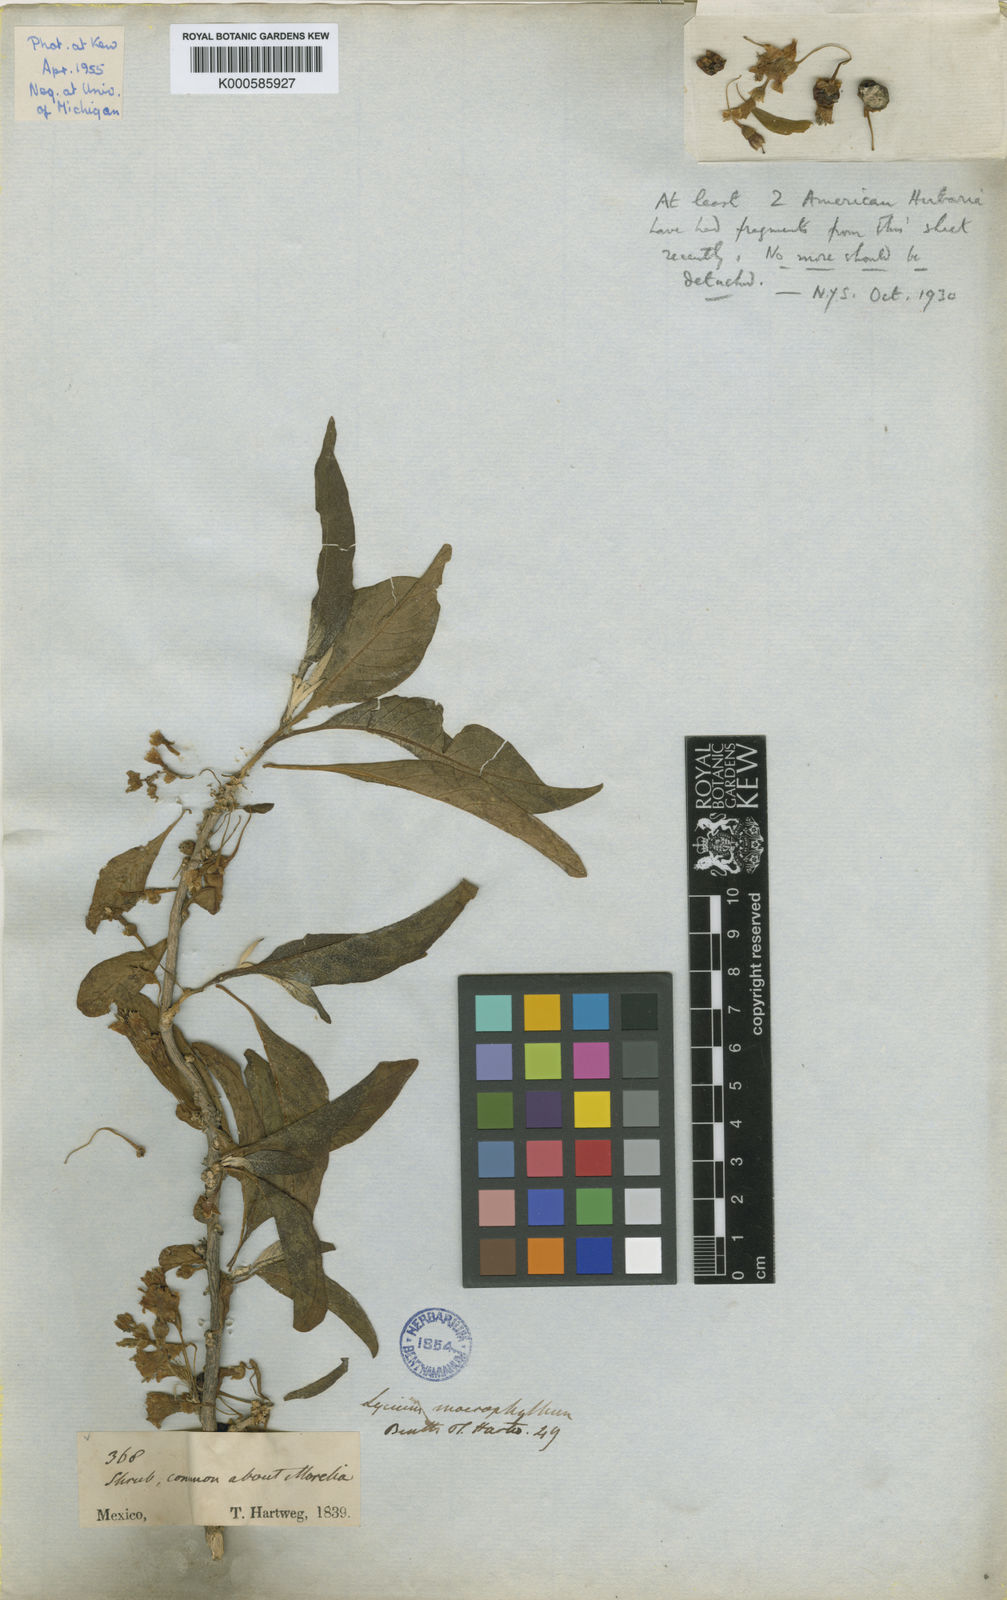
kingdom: Plantae
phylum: Tracheophyta
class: Magnoliopsida
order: Solanales
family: Solanaceae
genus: Iochroma
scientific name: Iochroma arborescens
